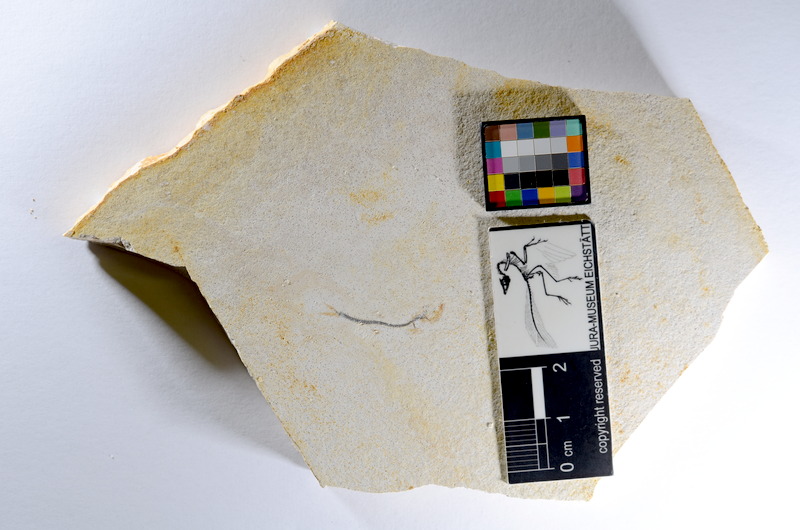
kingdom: Animalia
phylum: Chordata
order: Salmoniformes
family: Orthogonikleithridae
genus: Orthogonikleithrus
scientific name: Orthogonikleithrus hoelli
